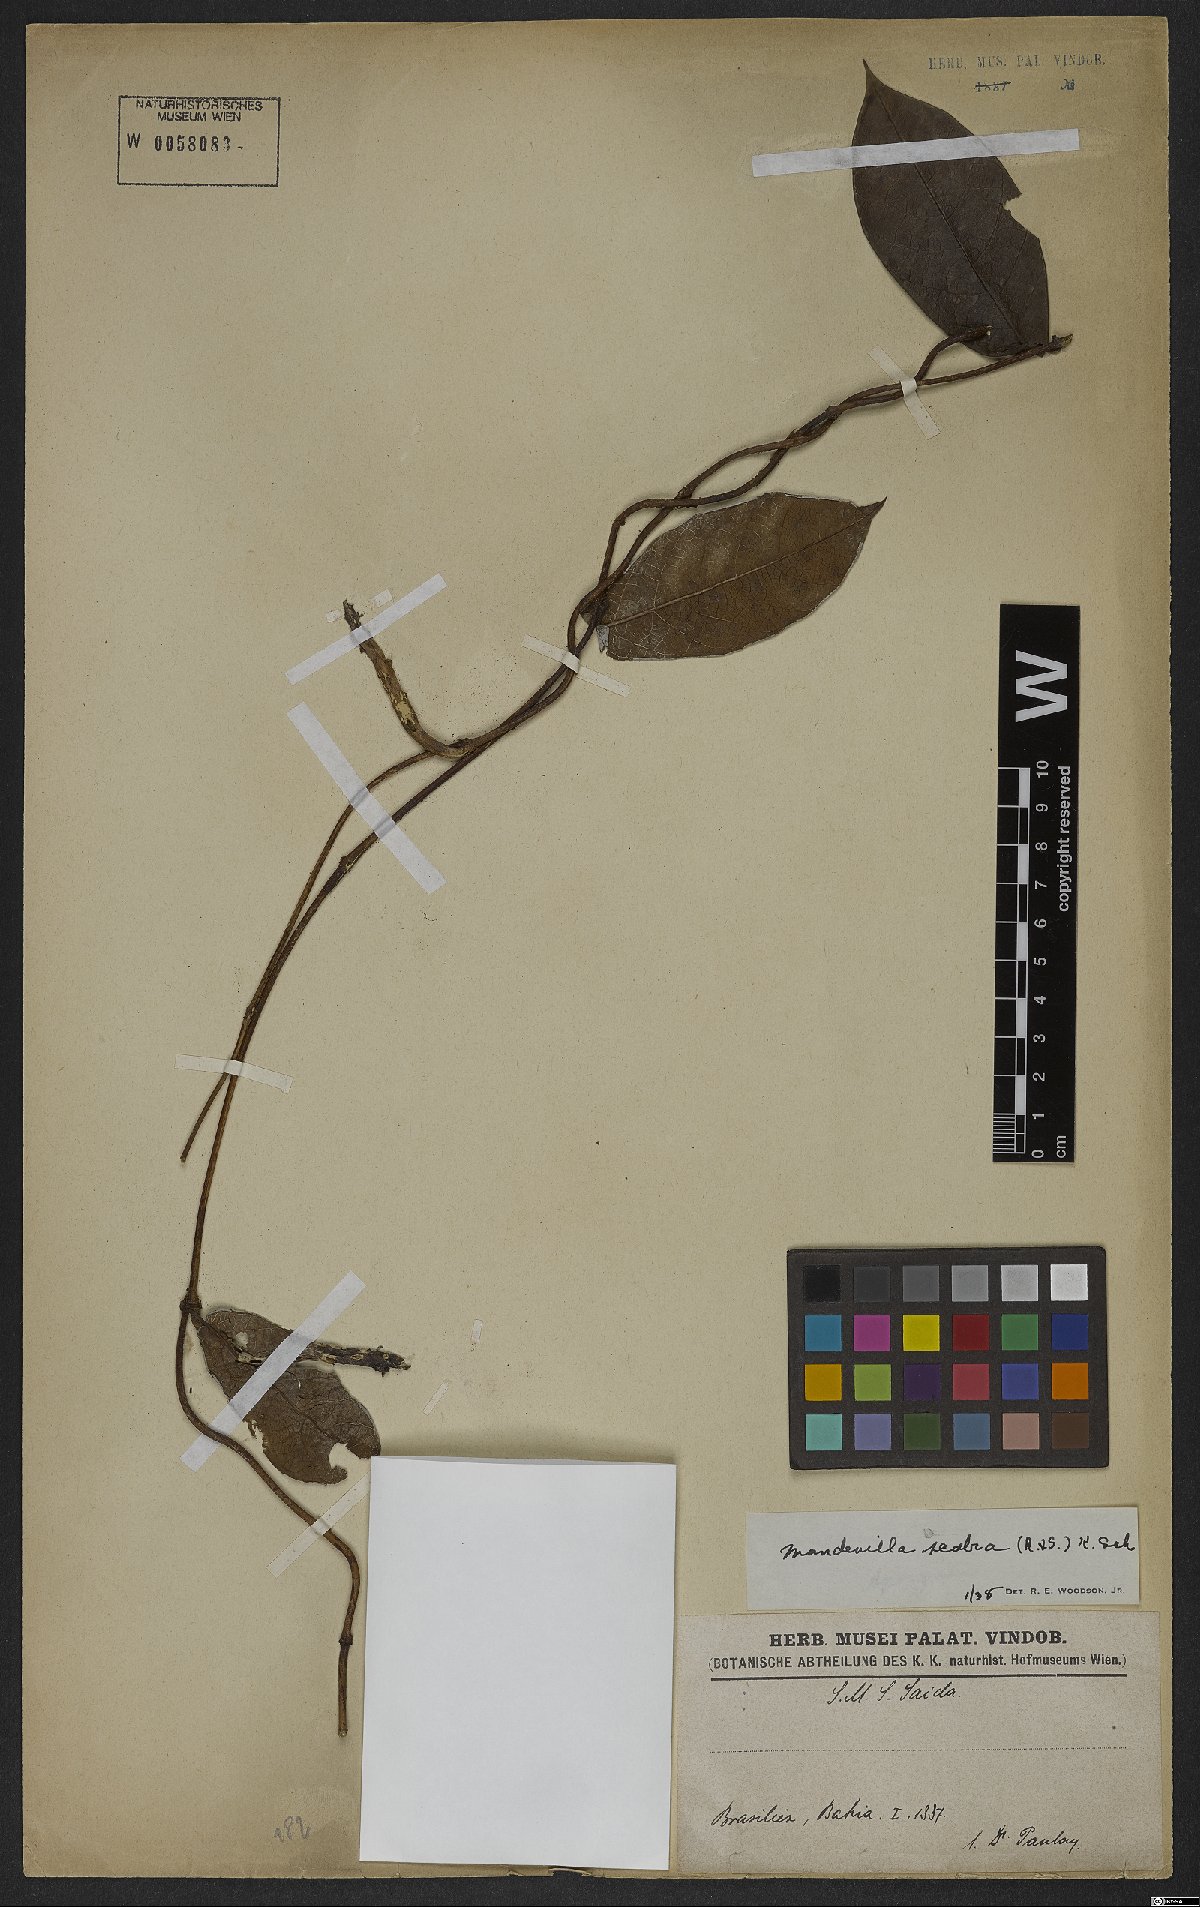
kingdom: Plantae
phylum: Tracheophyta
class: Magnoliopsida
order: Gentianales
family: Apocynaceae
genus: Mandevilla
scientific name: Mandevilla scabra
